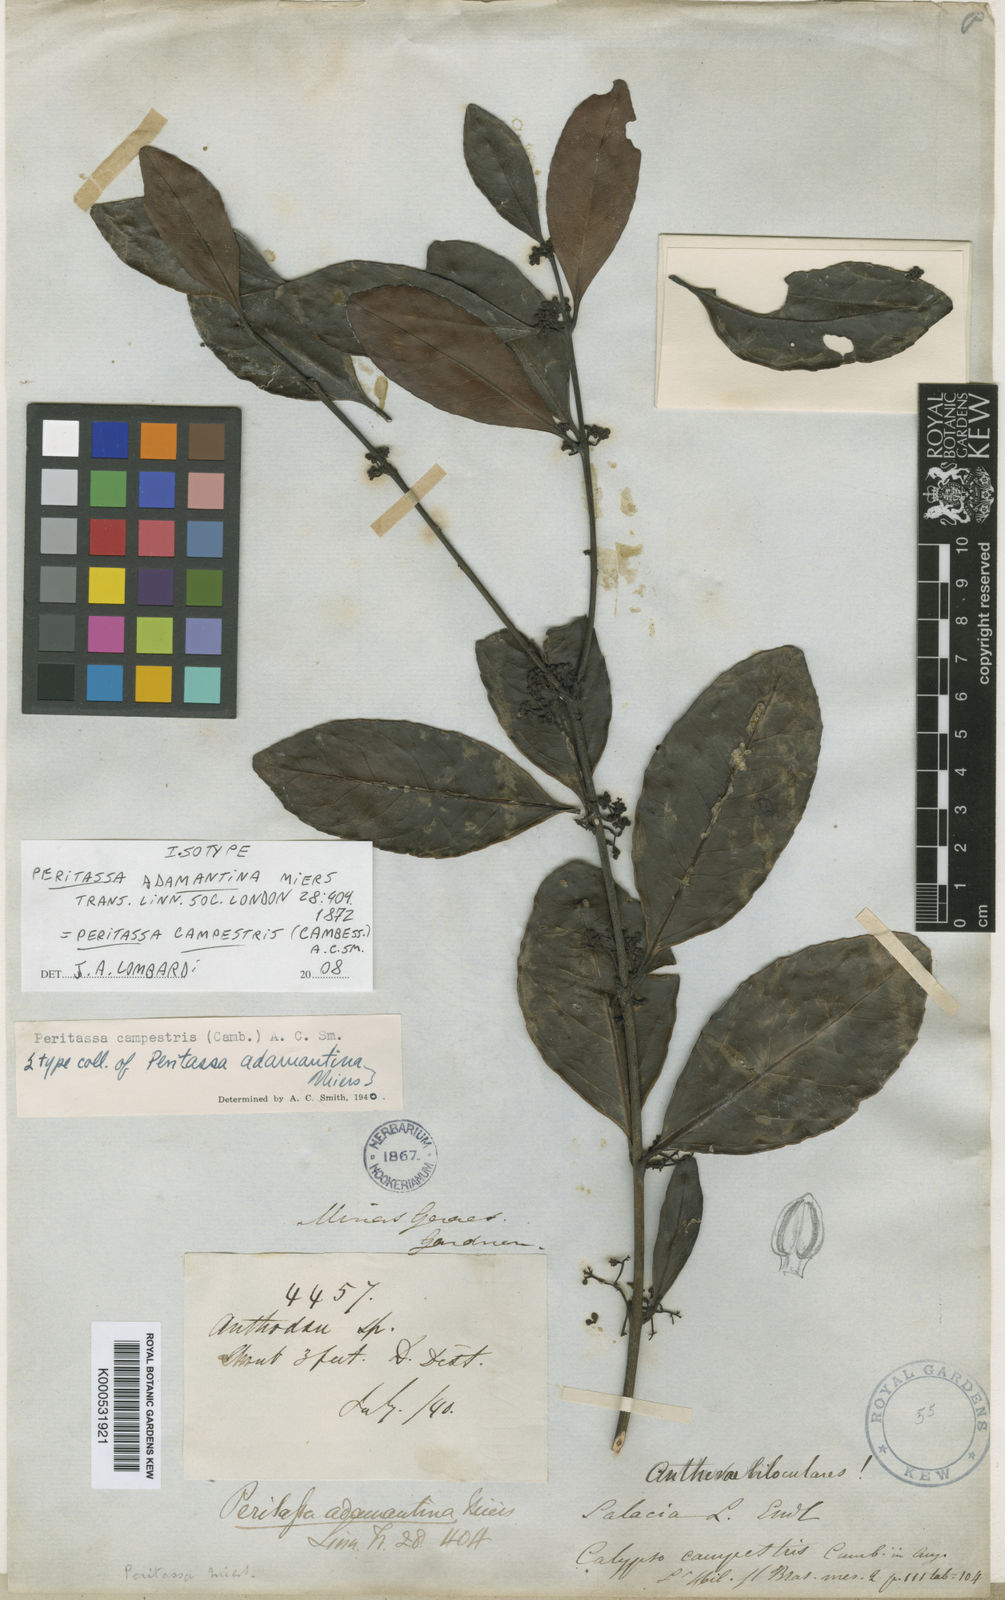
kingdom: Plantae
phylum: Tracheophyta
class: Magnoliopsida
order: Celastrales
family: Celastraceae
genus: Peritassa
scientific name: Peritassa campestris
